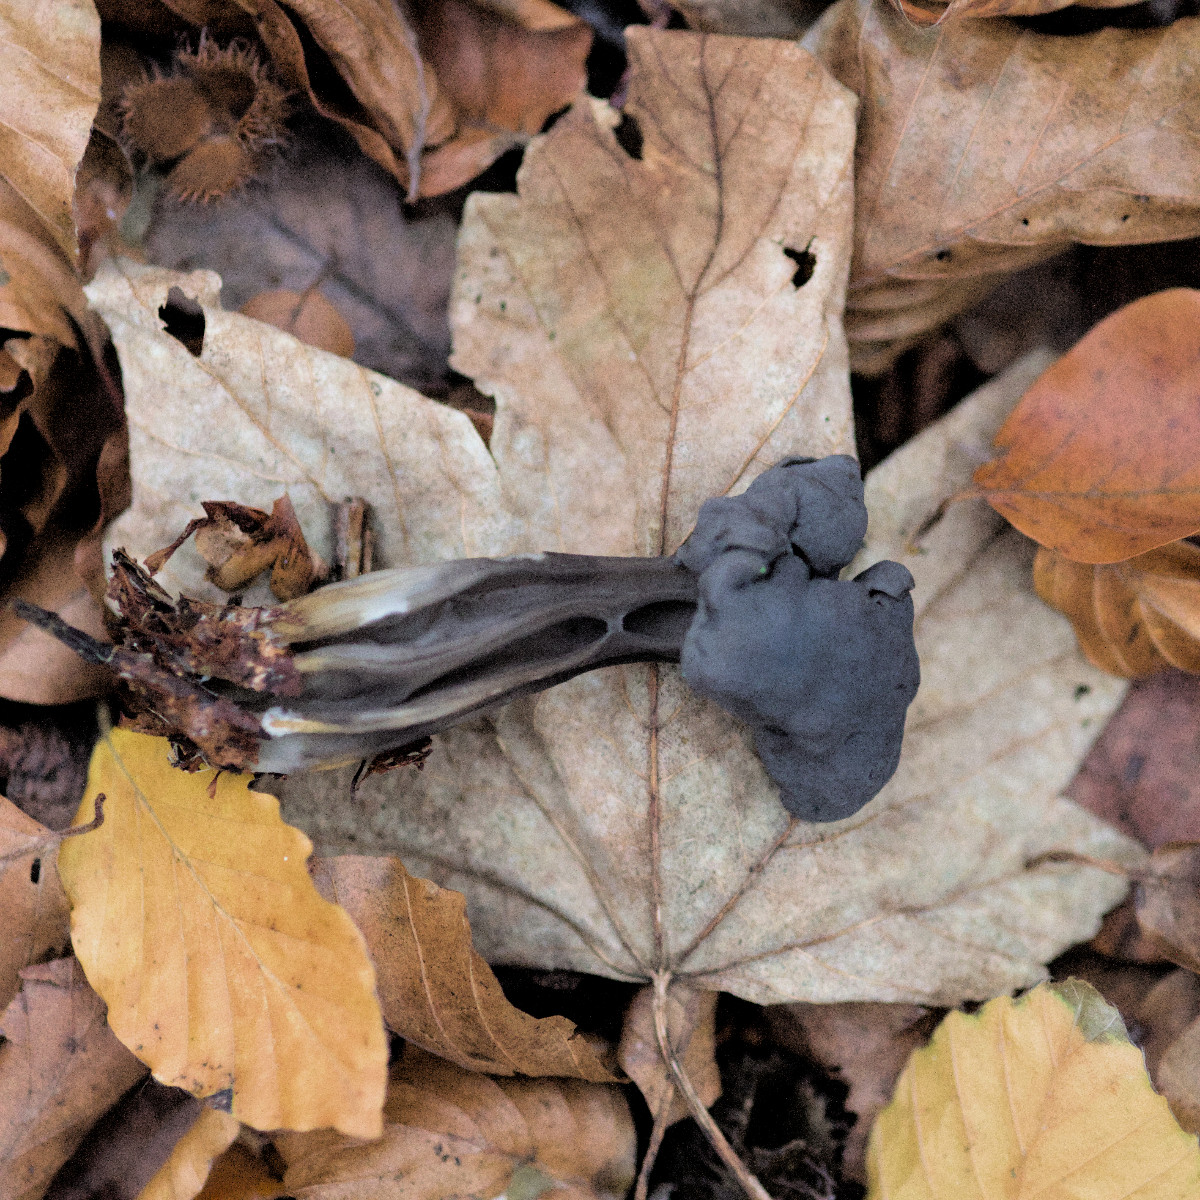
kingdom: Fungi
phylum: Ascomycota
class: Pezizomycetes
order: Pezizales
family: Helvellaceae
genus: Helvella
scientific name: Helvella lacunosa
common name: grubet foldhat
